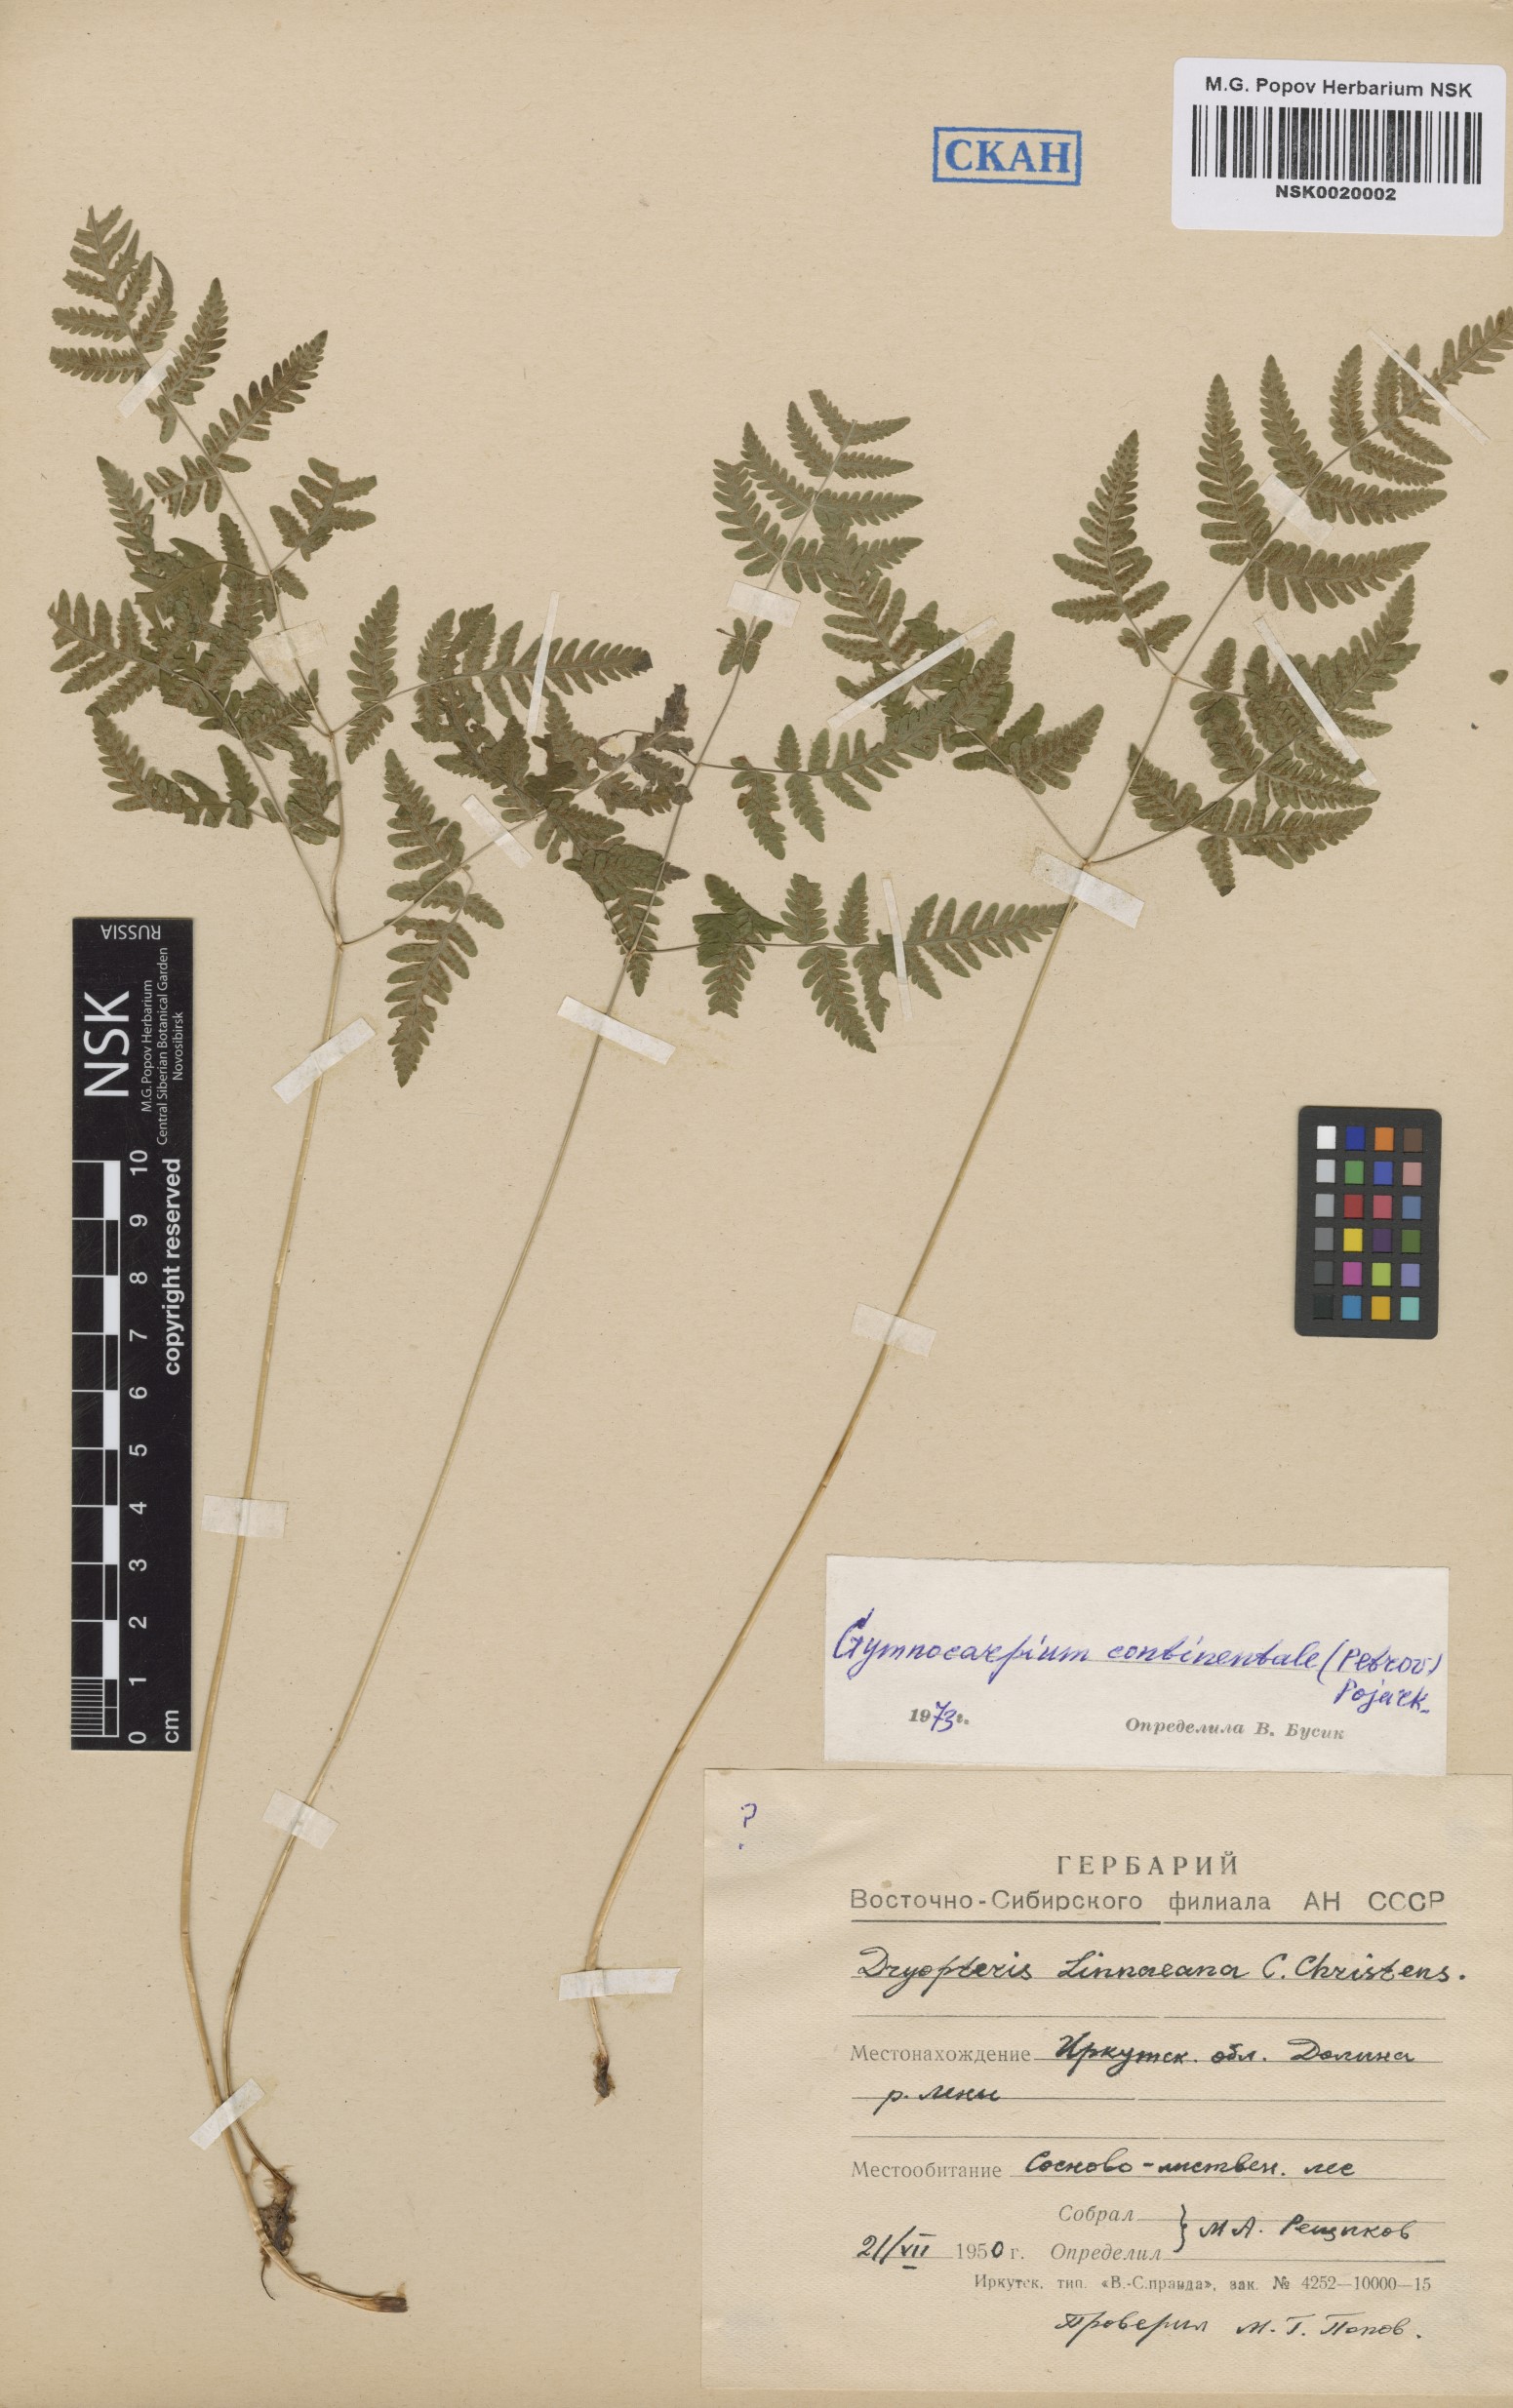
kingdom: Plantae
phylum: Tracheophyta
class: Polypodiopsida
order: Polypodiales
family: Cystopteridaceae
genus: Gymnocarpium
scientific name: Gymnocarpium continentale
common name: Asian oak fern
